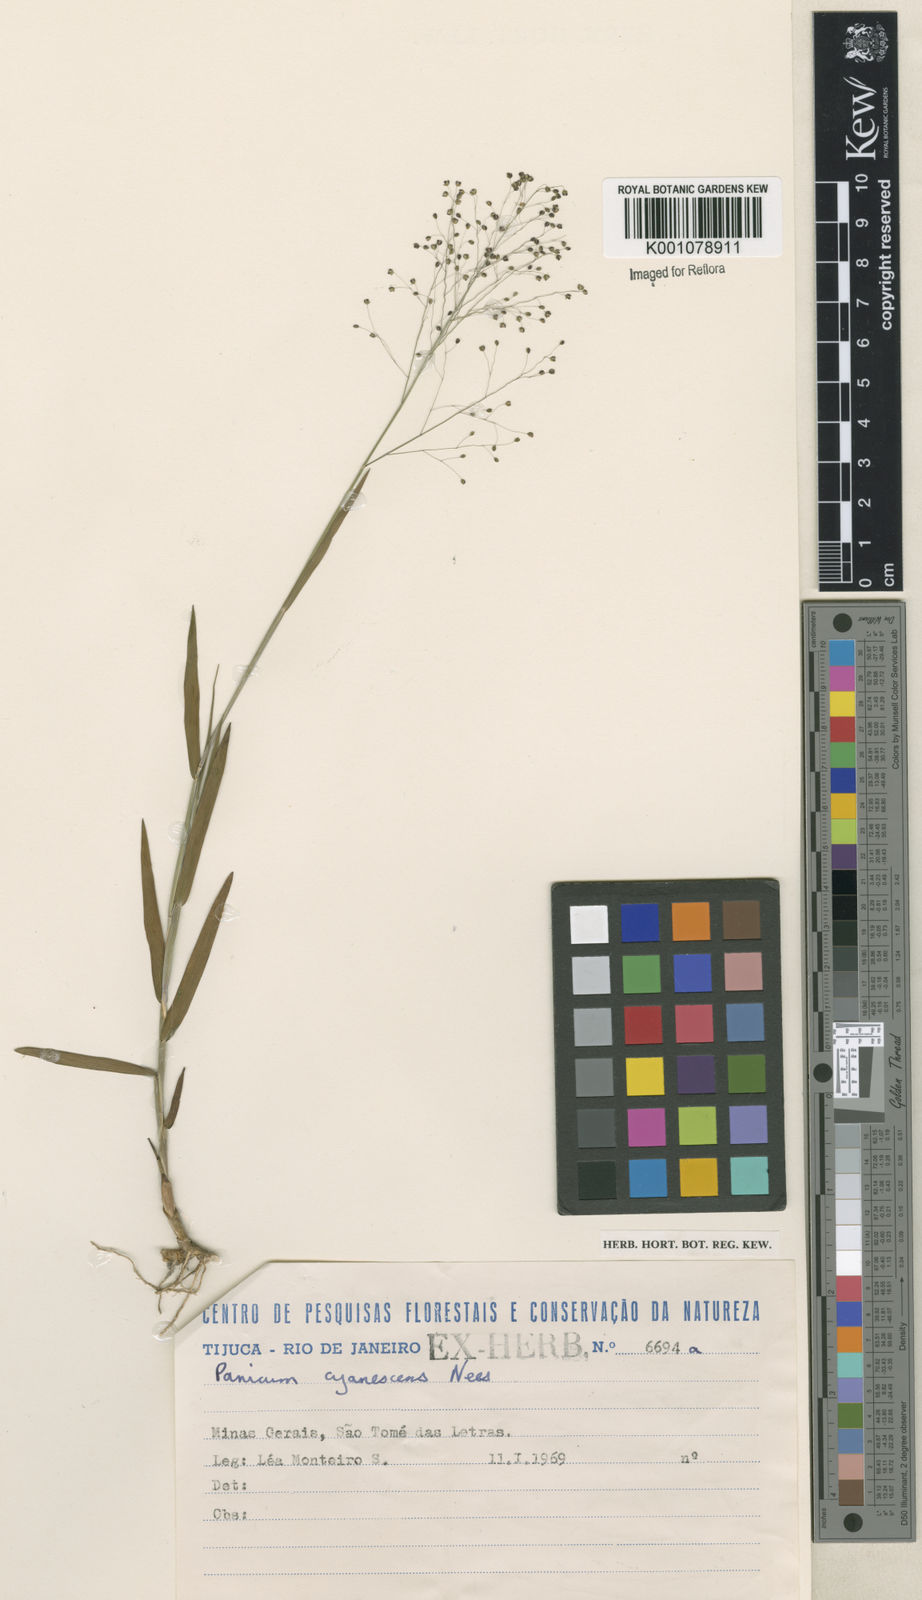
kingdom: Plantae
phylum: Tracheophyta
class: Liliopsida
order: Poales
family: Poaceae
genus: Trichanthecium
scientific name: Trichanthecium cyanescens
